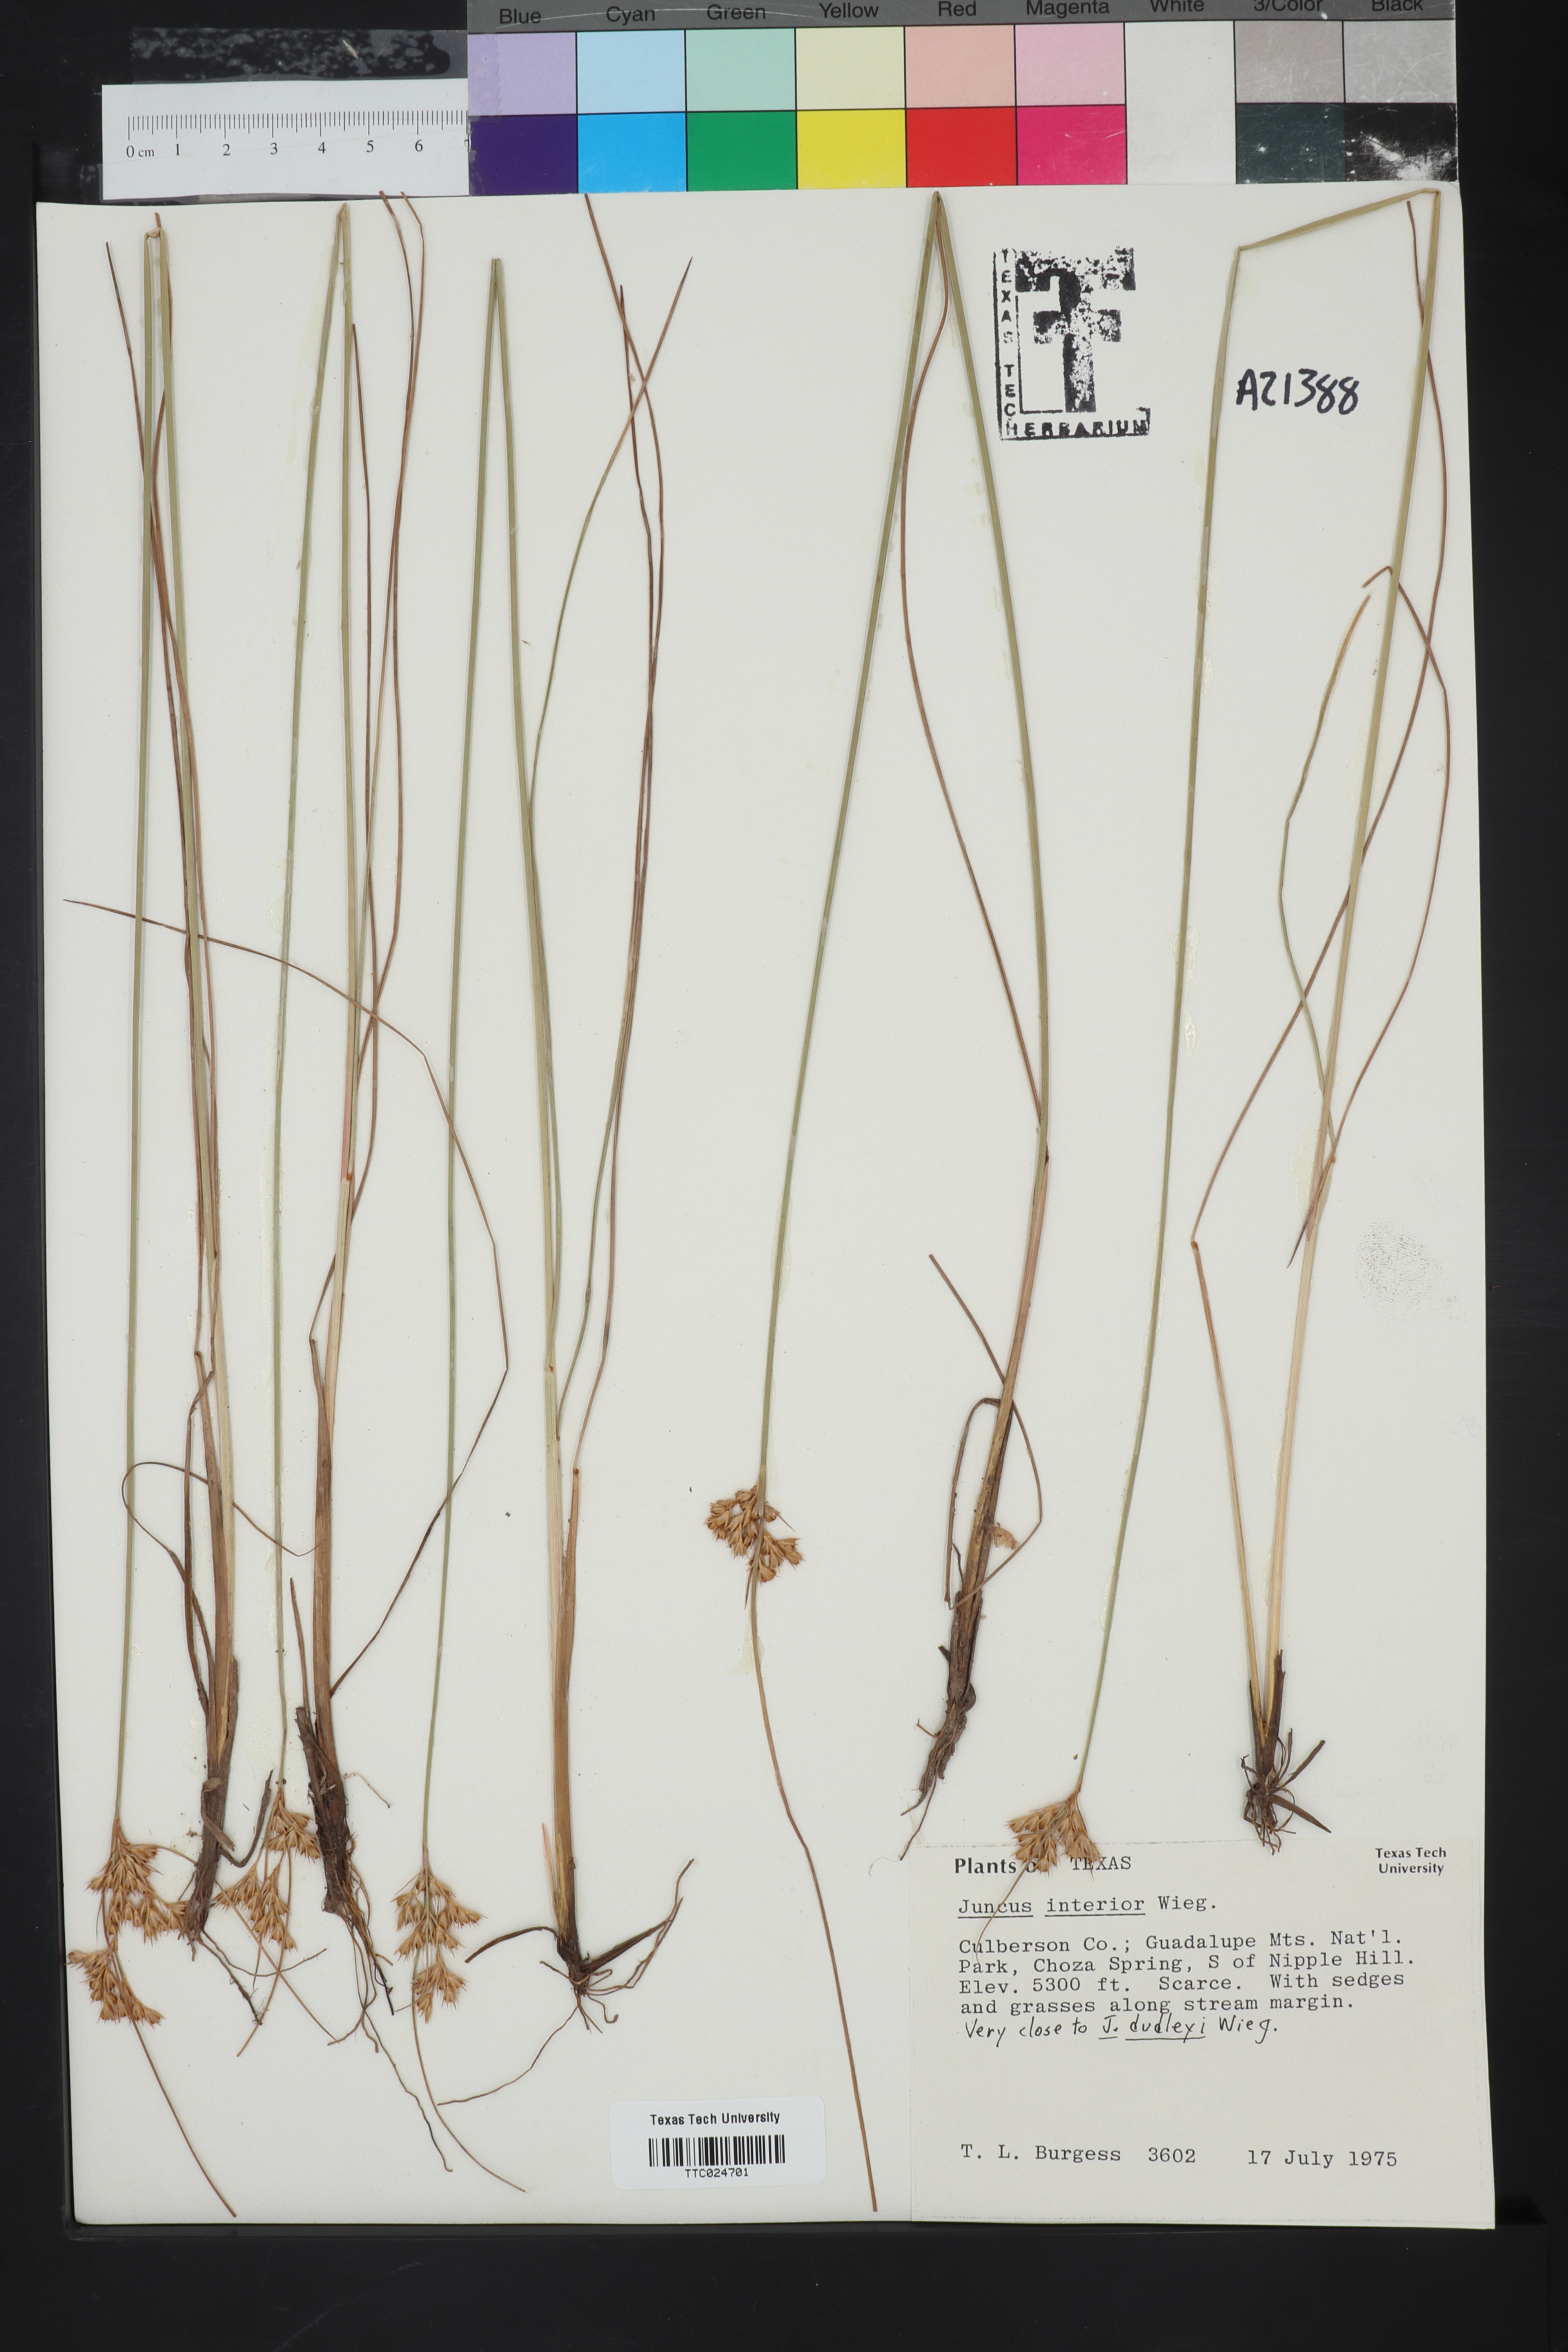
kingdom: Plantae
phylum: Tracheophyta
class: Liliopsida
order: Poales
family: Juncaceae
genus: Juncus
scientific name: Juncus interior
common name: Interior rush
